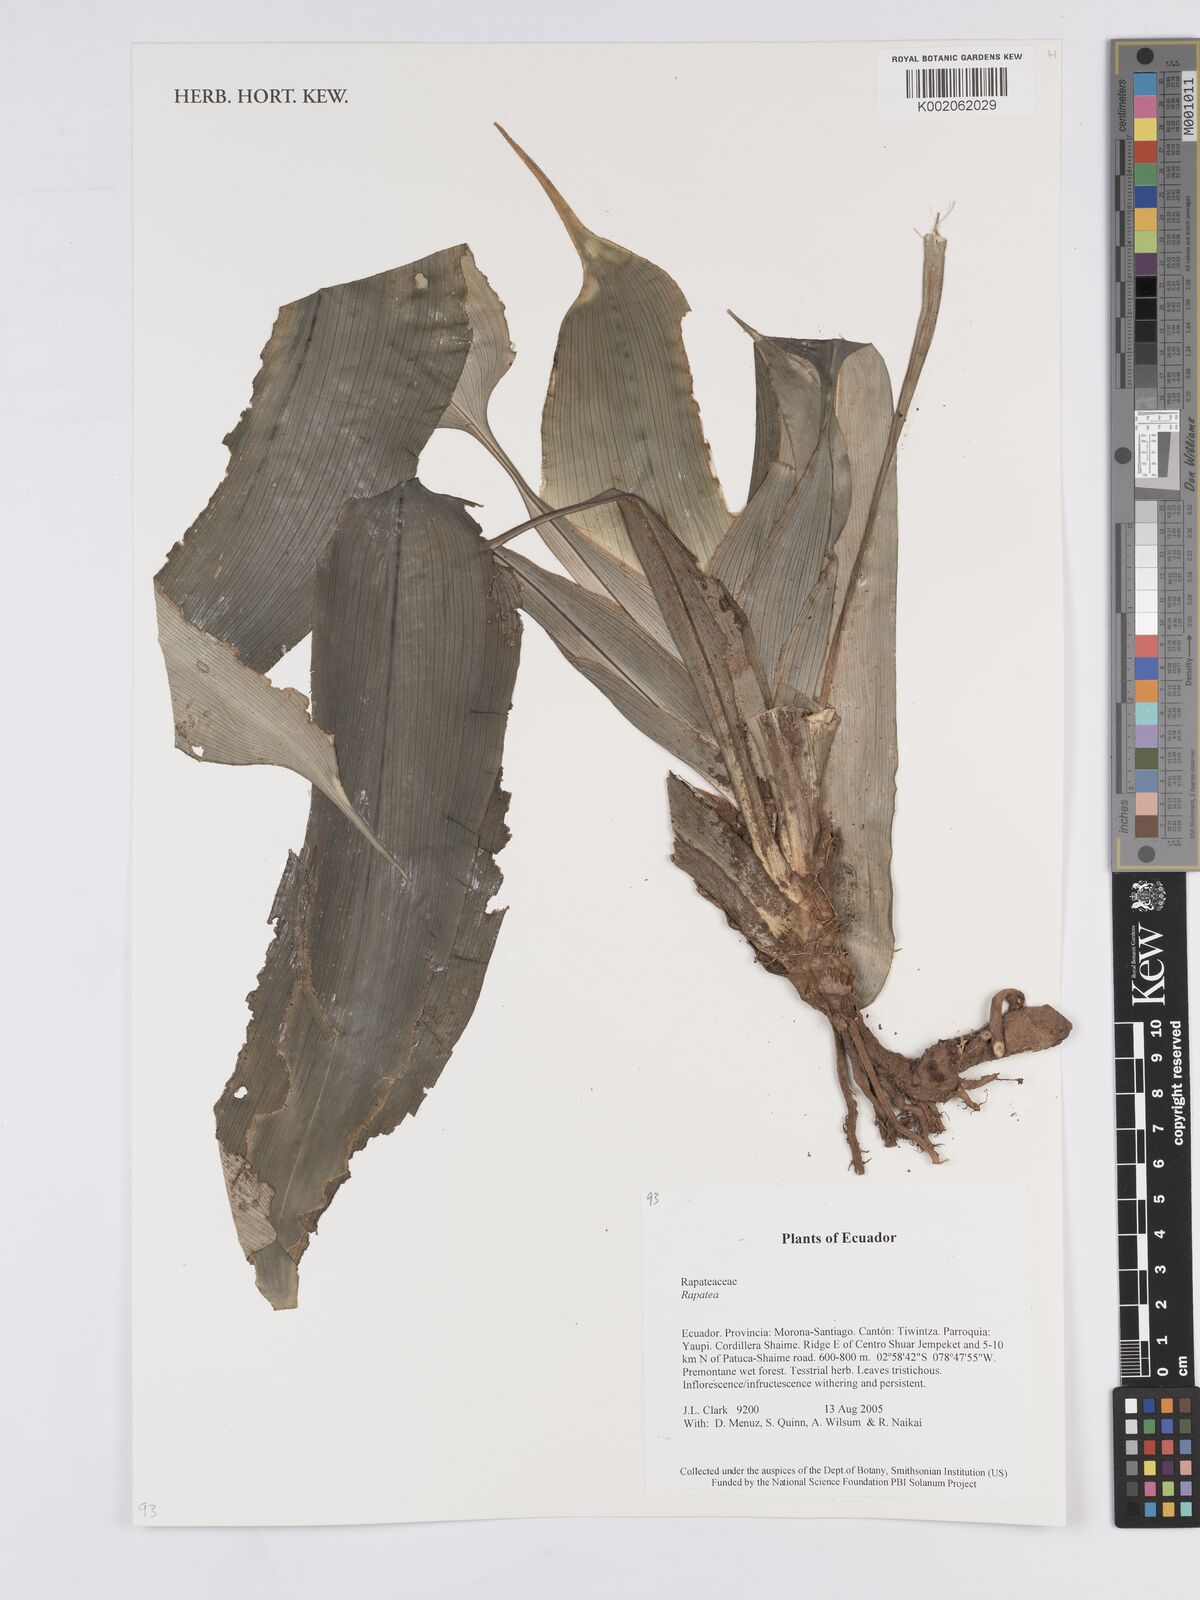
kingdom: Plantae
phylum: Tracheophyta
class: Liliopsida
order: Poales
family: Rapateaceae
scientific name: Rapateaceae
